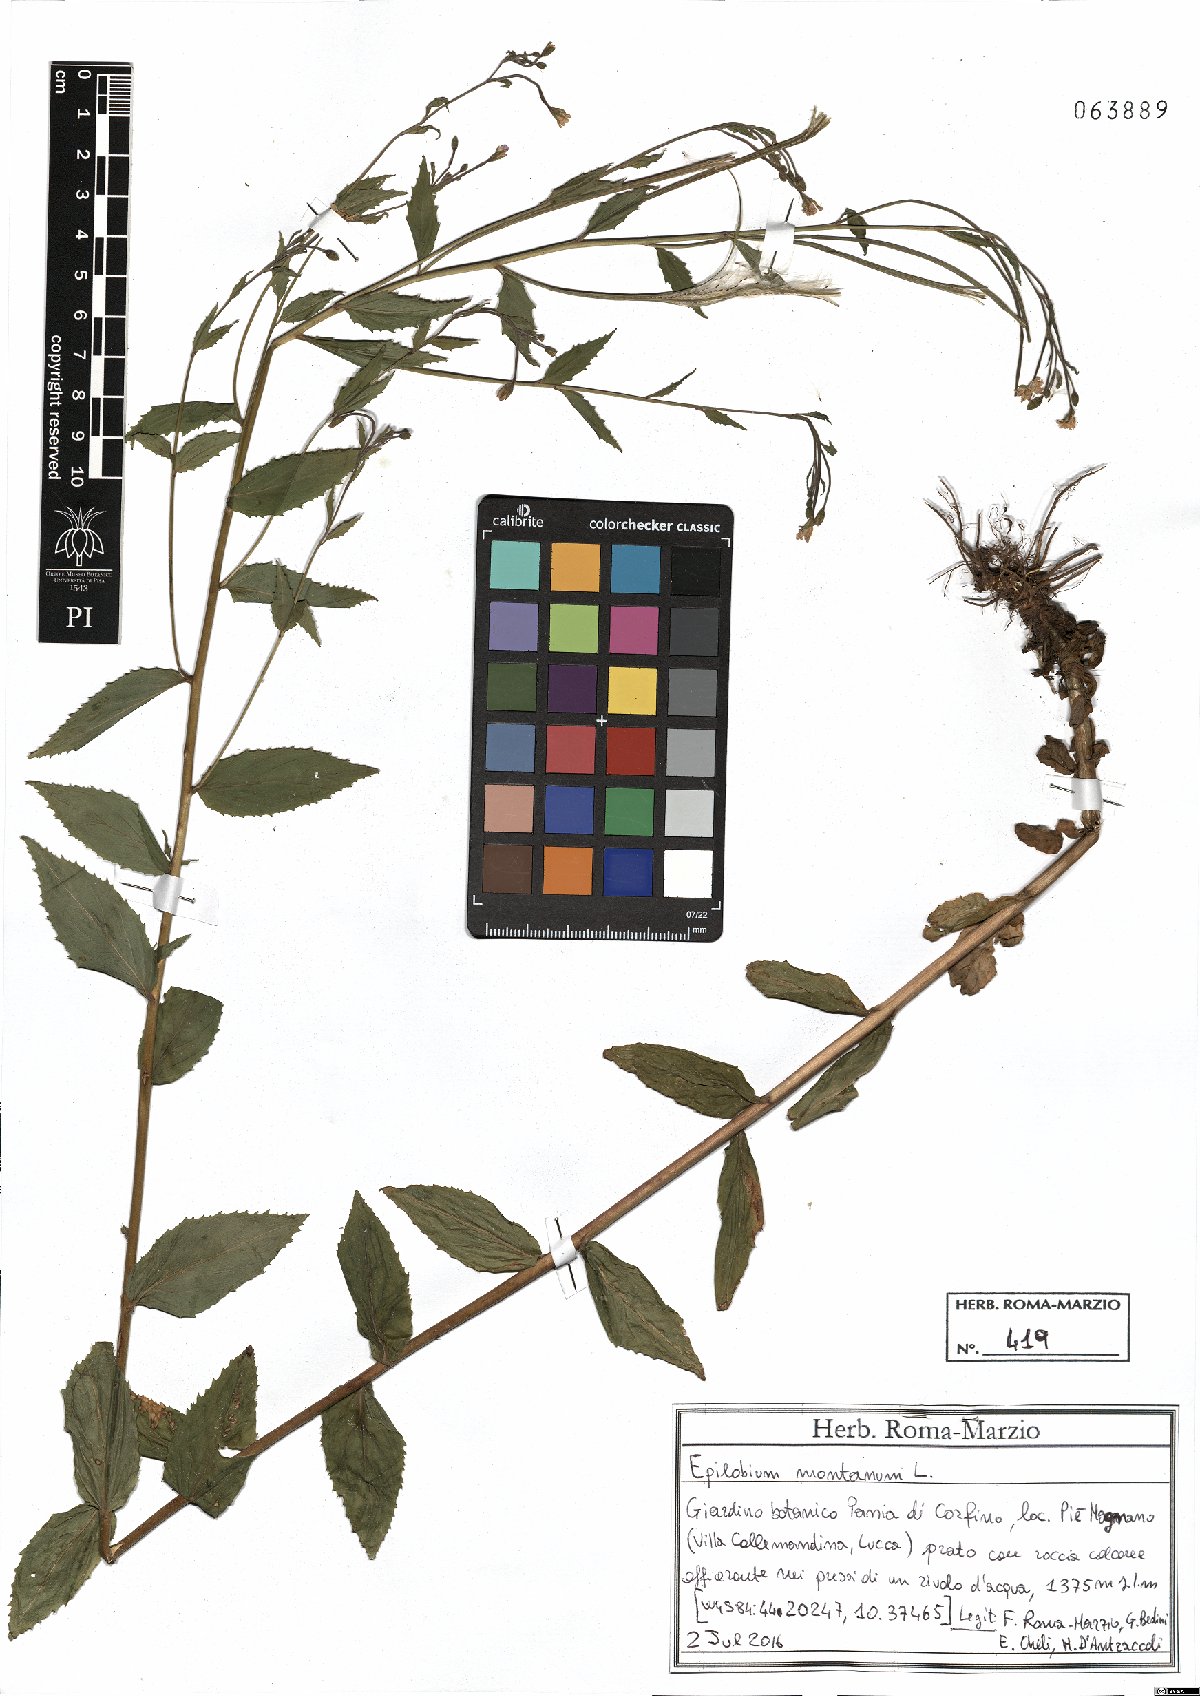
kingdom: Plantae
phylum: Tracheophyta
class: Magnoliopsida
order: Myrtales
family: Onagraceae
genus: Epilobium
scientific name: Epilobium montanum
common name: Broad-leaved willowherb
